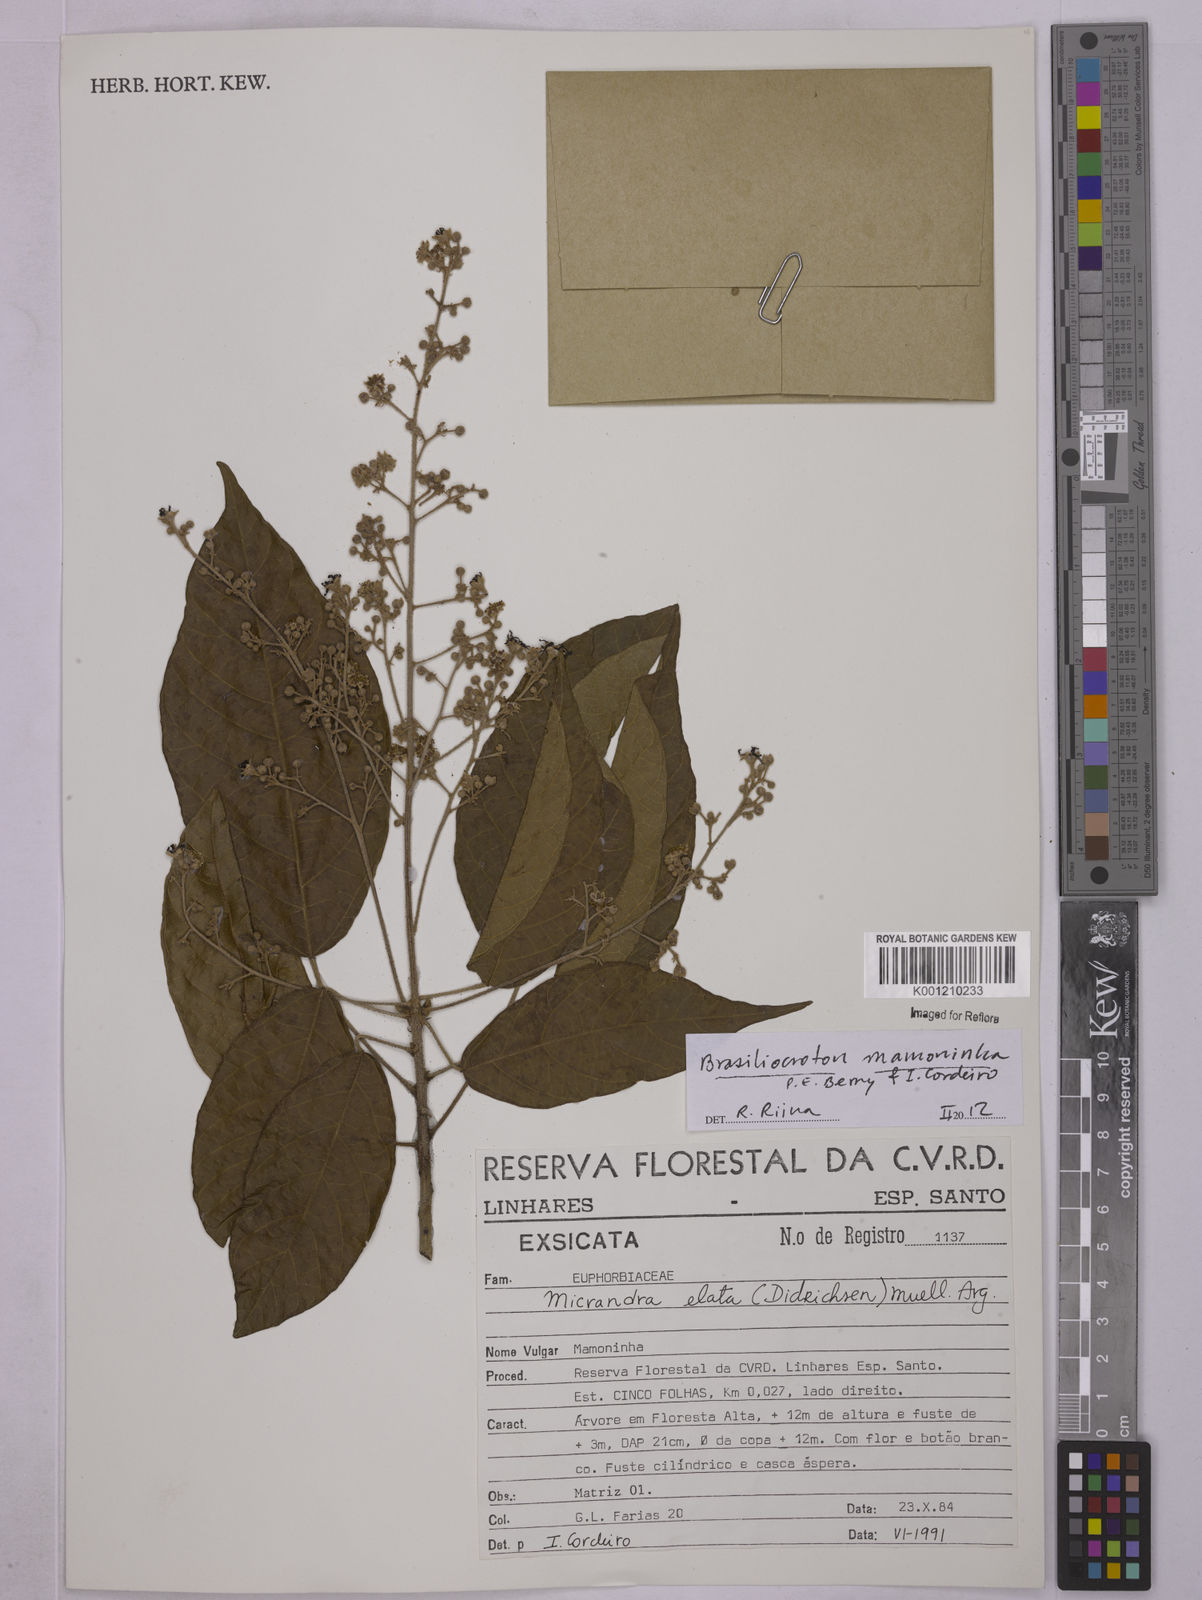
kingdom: Plantae
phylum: Tracheophyta
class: Magnoliopsida
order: Malpighiales
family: Euphorbiaceae
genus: Brasiliocroton
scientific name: Brasiliocroton mamoninha
